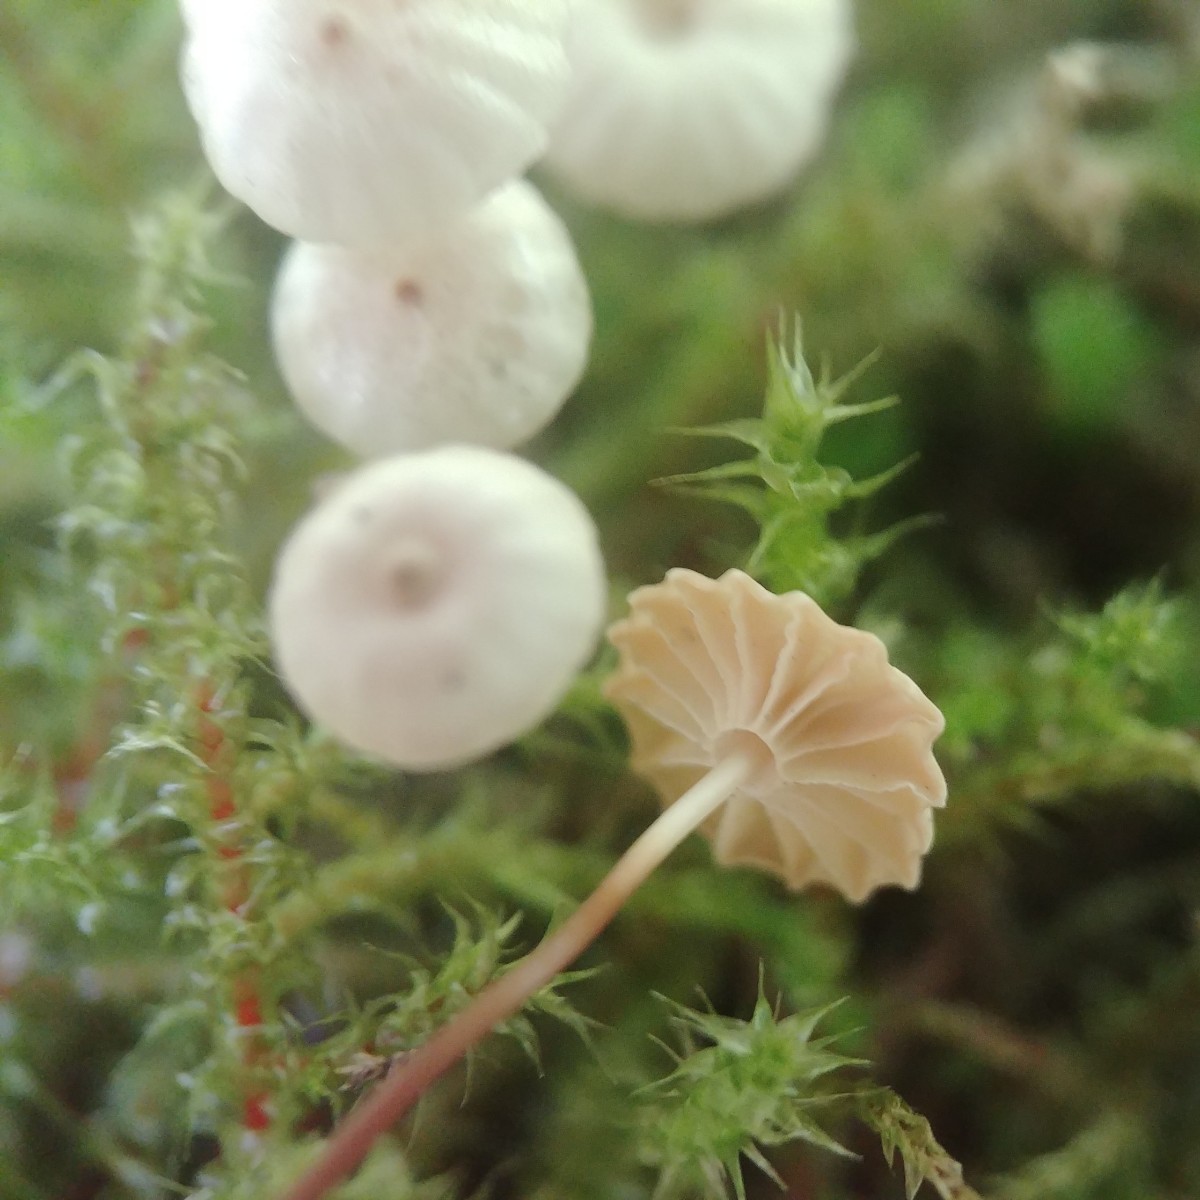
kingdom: Fungi
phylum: Basidiomycota
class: Agaricomycetes
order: Agaricales
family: Marasmiaceae
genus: Marasmius
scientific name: Marasmius rotula
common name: hjul-bruskhat
